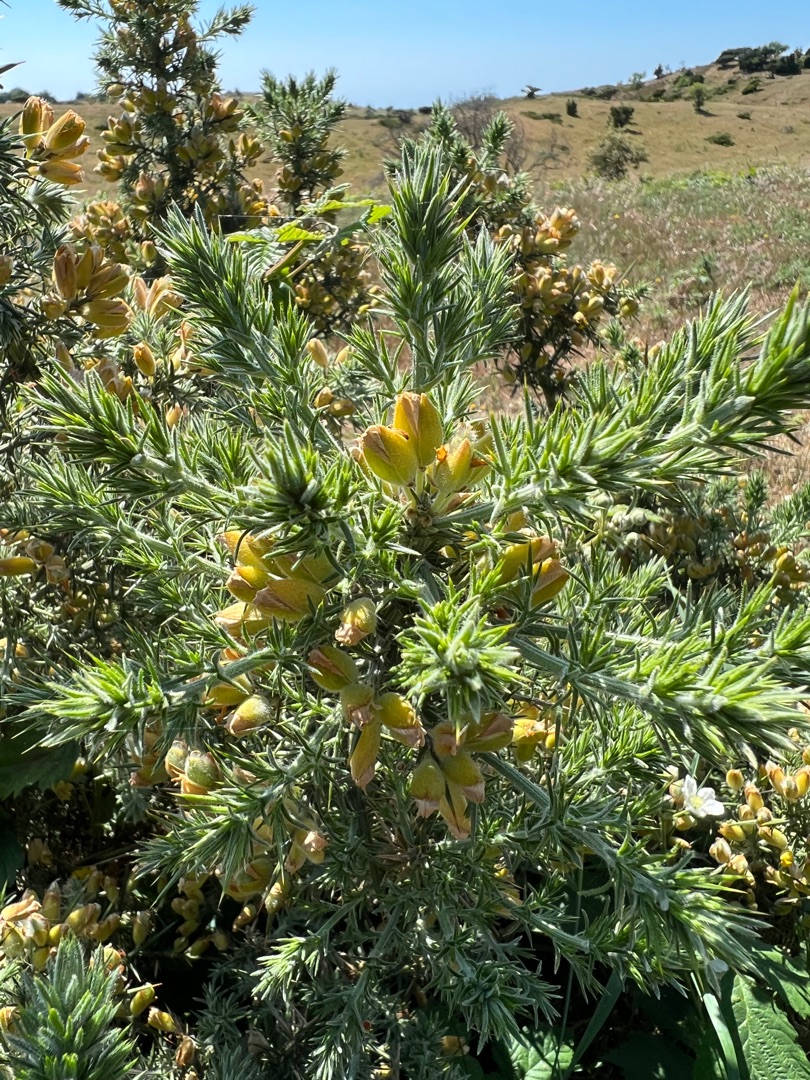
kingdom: Plantae
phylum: Tracheophyta
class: Magnoliopsida
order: Fabales
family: Fabaceae
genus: Ulex
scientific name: Ulex europaeus
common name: Tornblad
